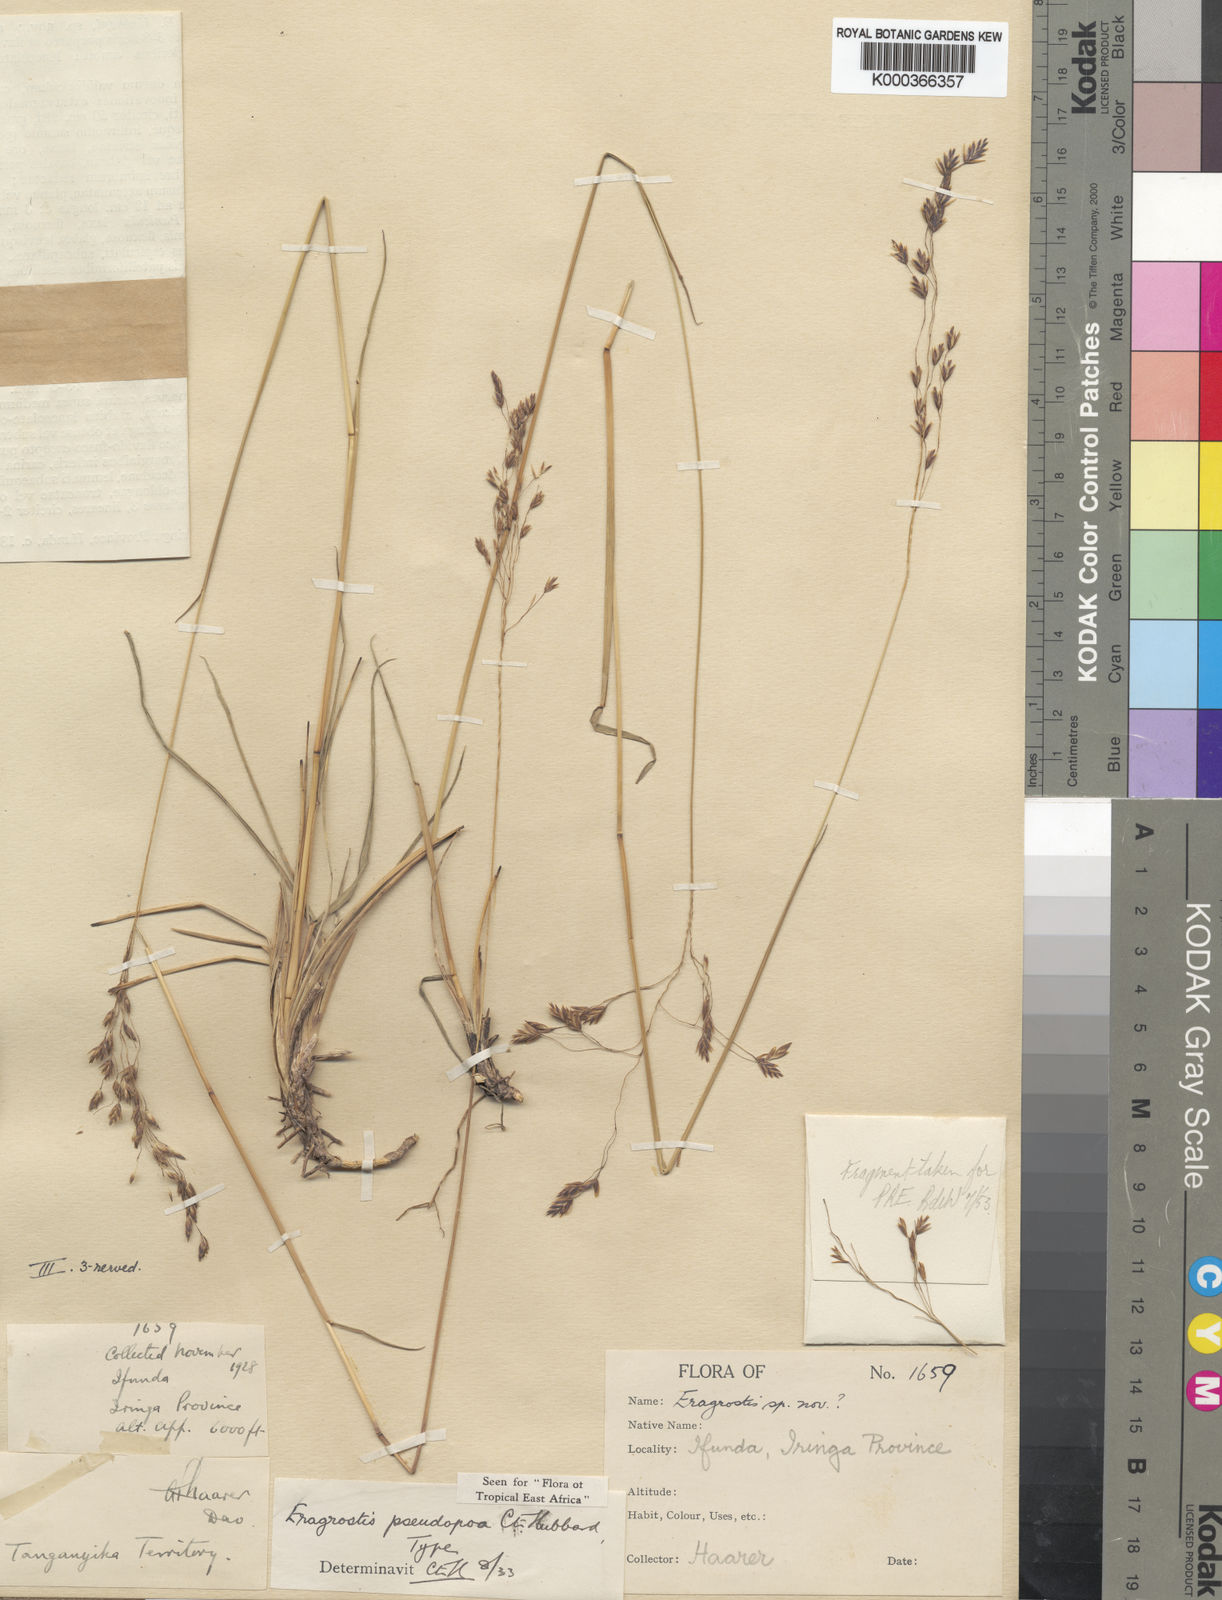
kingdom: Plantae
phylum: Tracheophyta
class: Liliopsida
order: Poales
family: Poaceae
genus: Eragrostis
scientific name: Eragrostis pseudopoa
